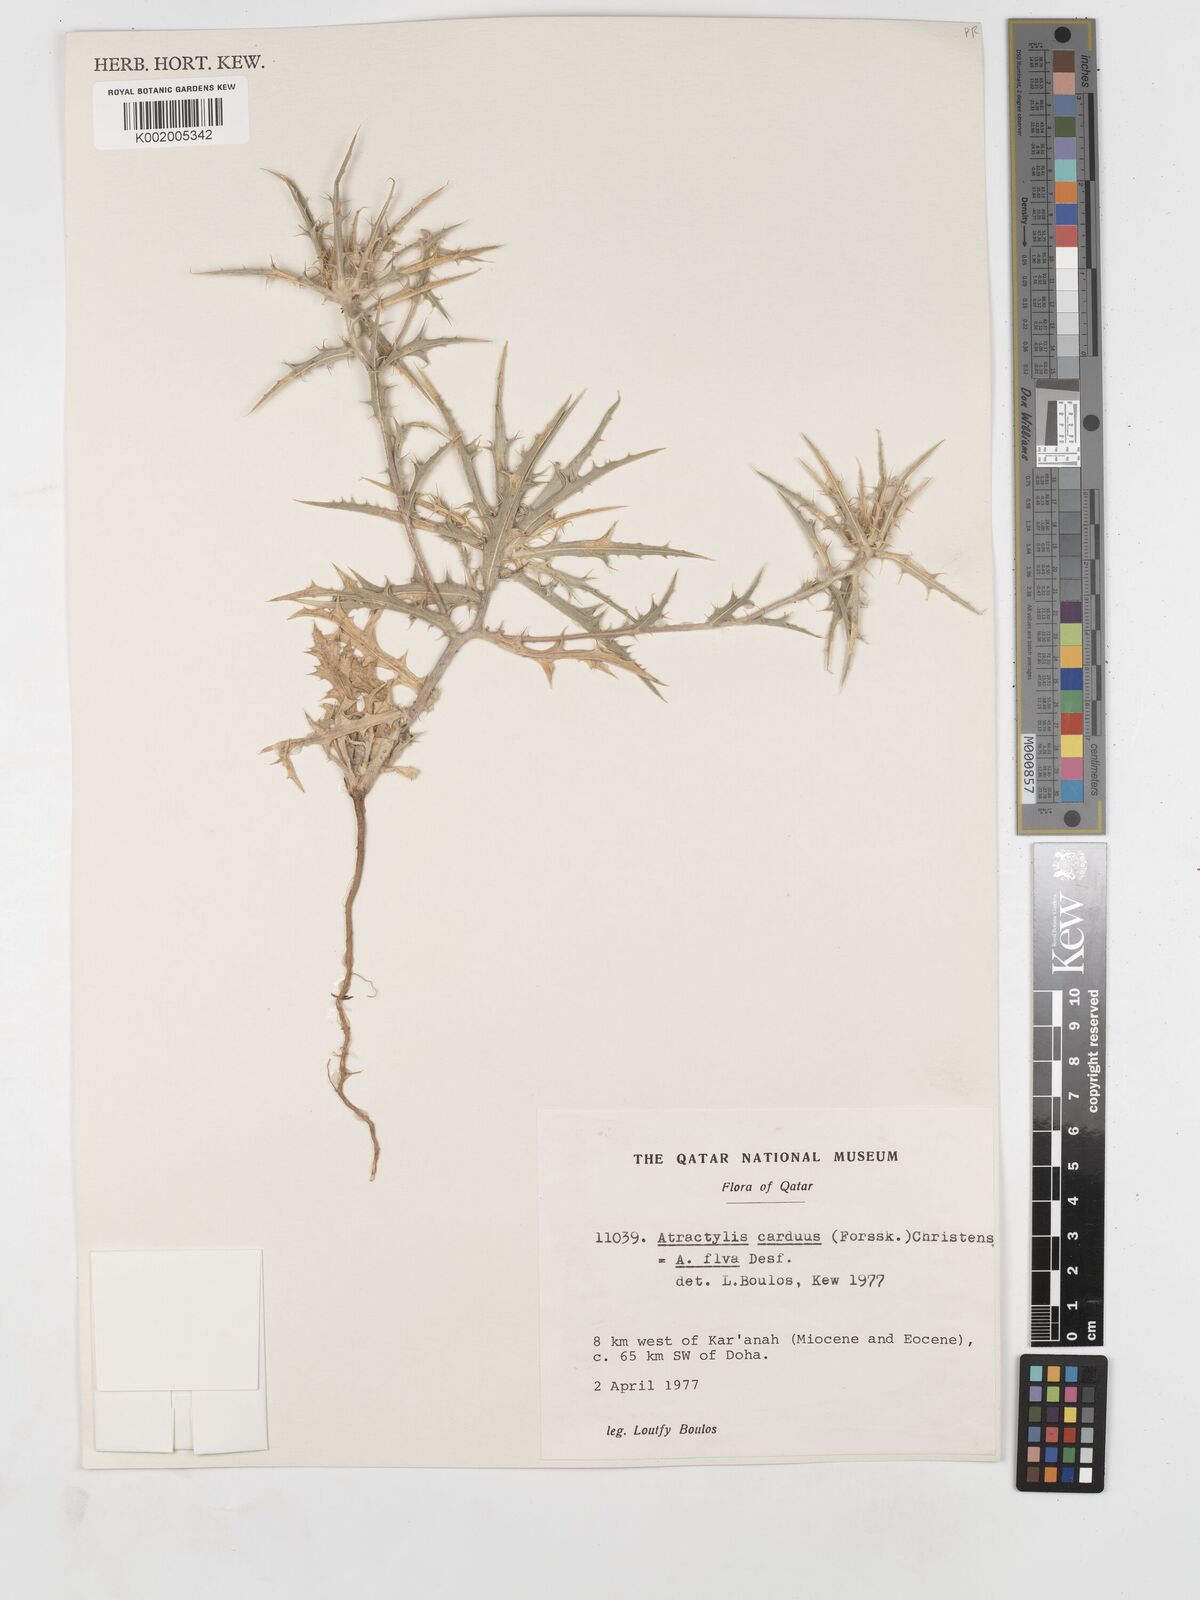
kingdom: Plantae
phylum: Tracheophyta
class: Magnoliopsida
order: Asterales
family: Asteraceae
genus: Atractylis
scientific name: Atractylis carduus
